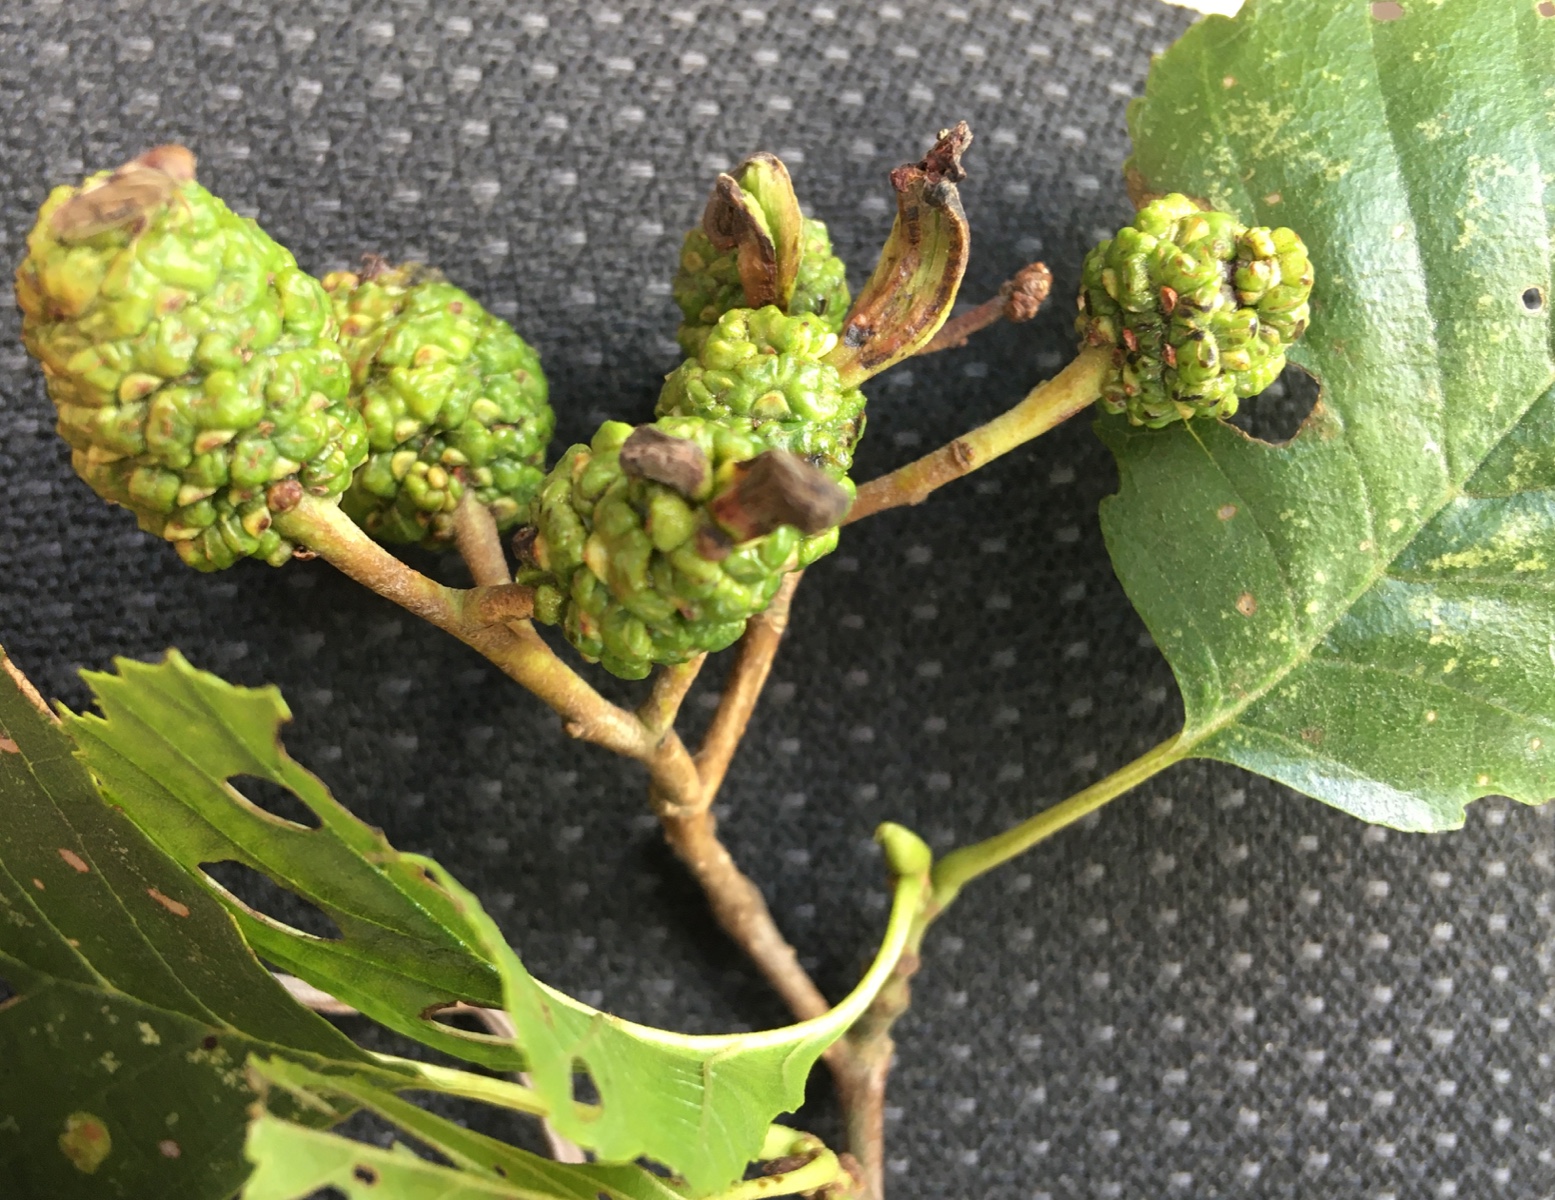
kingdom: Fungi
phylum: Ascomycota
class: Taphrinomycetes
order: Taphrinales
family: Taphrinaceae
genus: Taphrina
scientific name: Taphrina alni
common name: Alder tongue
